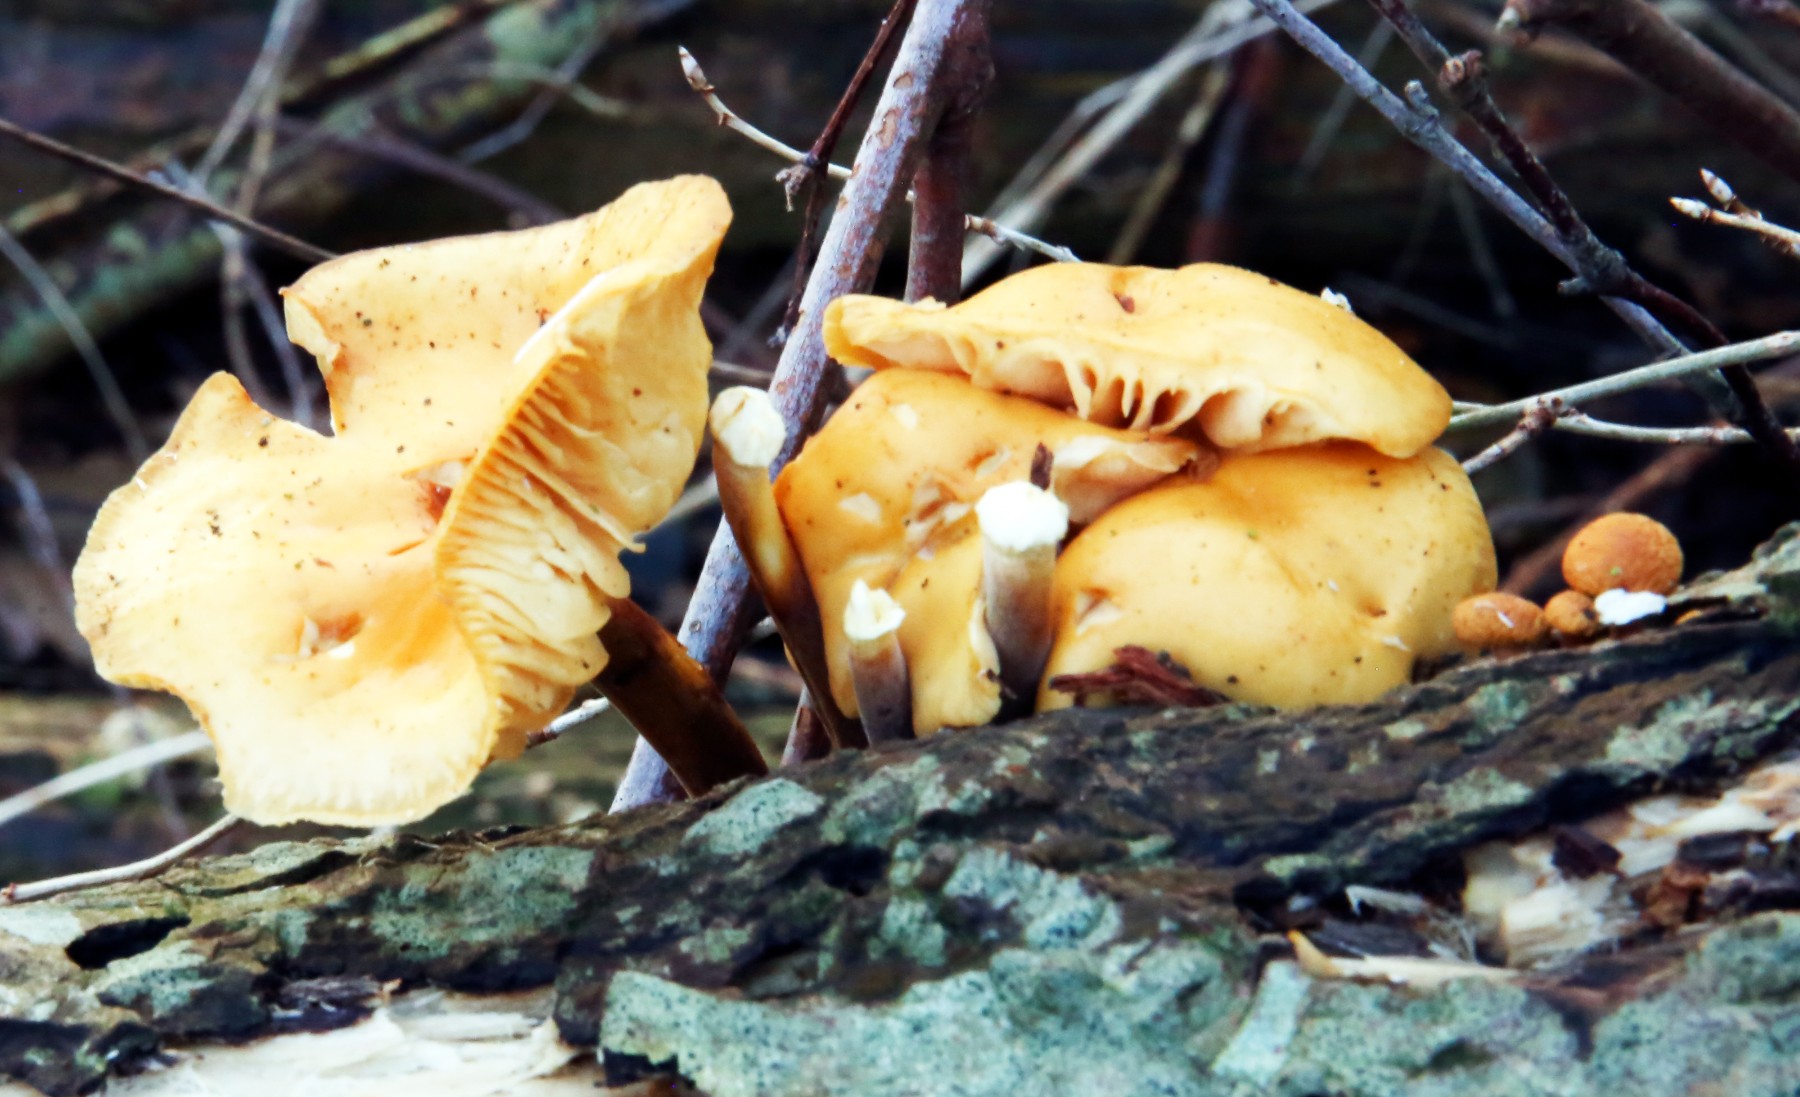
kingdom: Fungi
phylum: Basidiomycota
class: Agaricomycetes
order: Agaricales
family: Physalacriaceae
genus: Flammulina
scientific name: Flammulina
